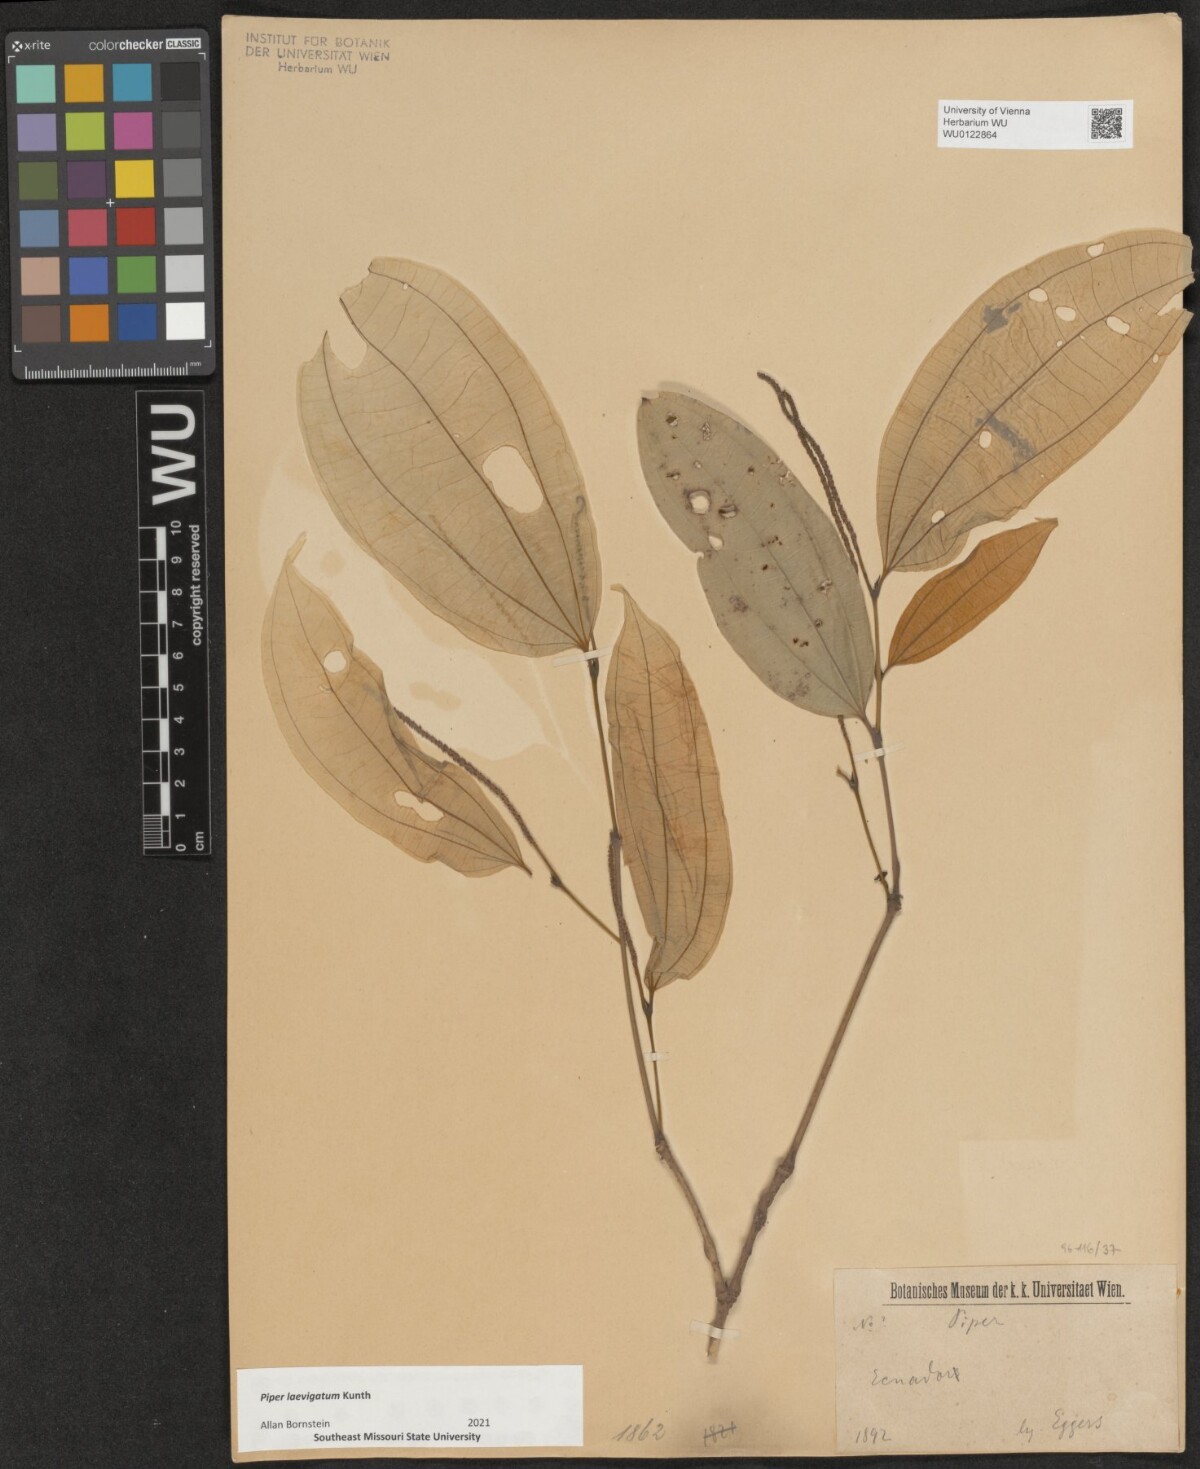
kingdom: Plantae
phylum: Tracheophyta
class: Magnoliopsida
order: Piperales
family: Piperaceae
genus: Piper
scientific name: Piper laevigatum
